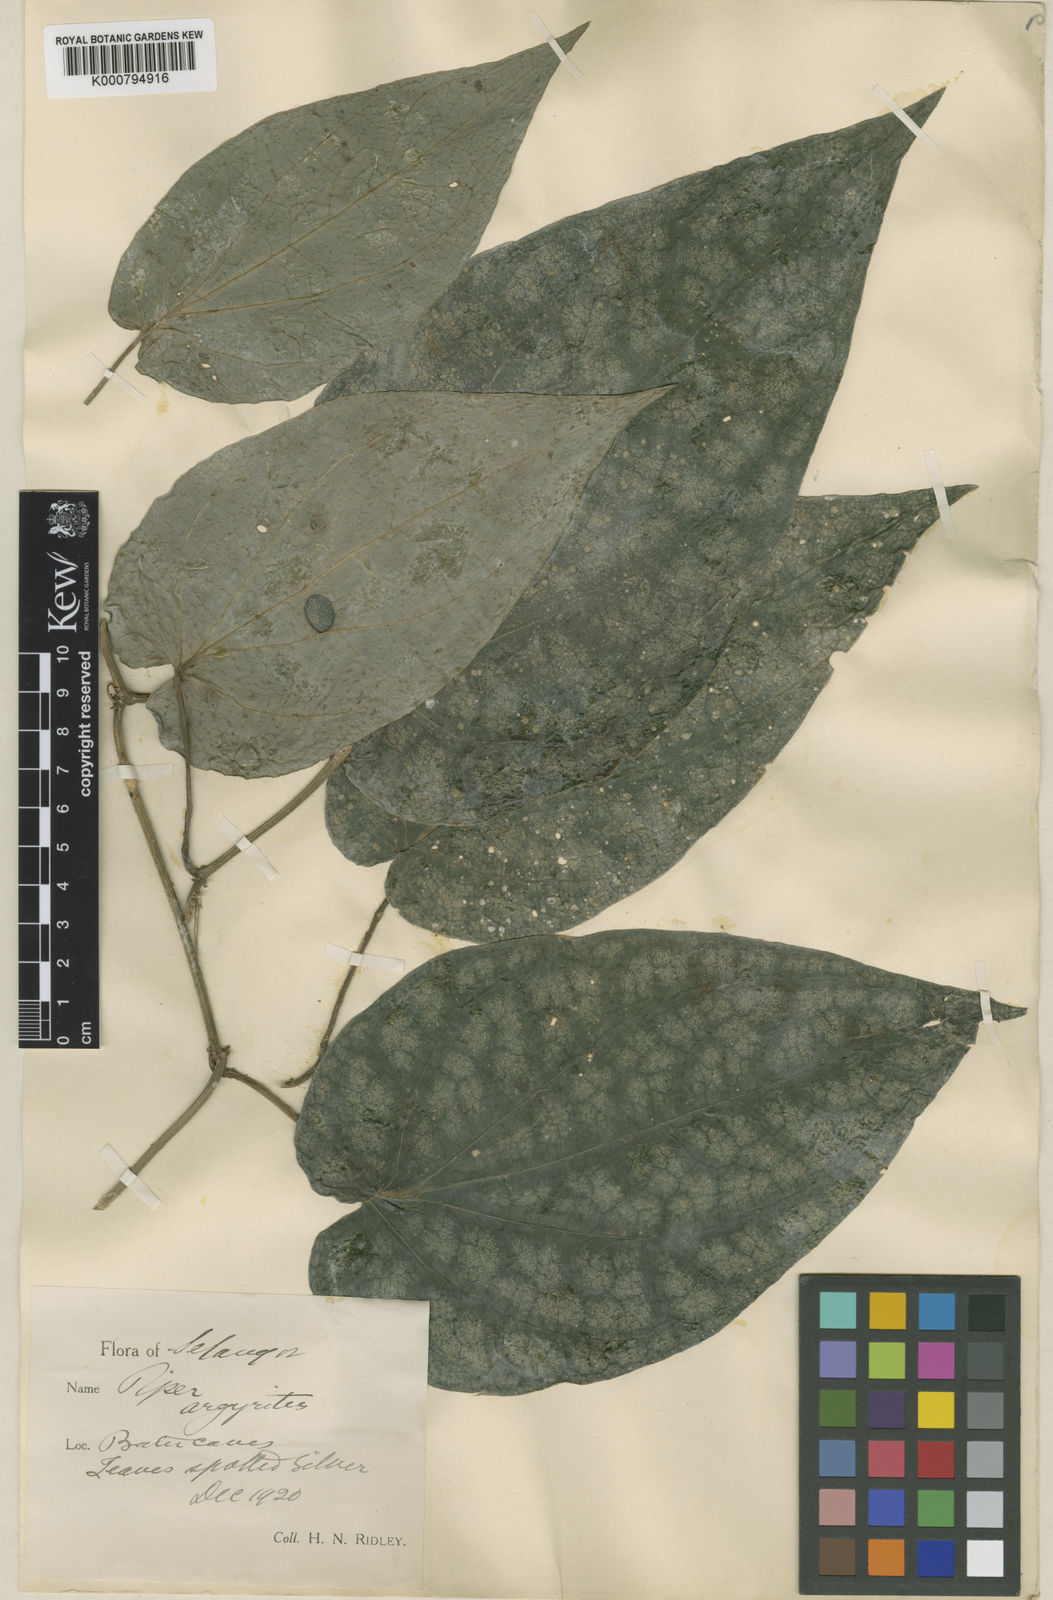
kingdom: Plantae
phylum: Tracheophyta
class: Magnoliopsida
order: Piperales
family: Piperaceae
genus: Piper
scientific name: Piper
